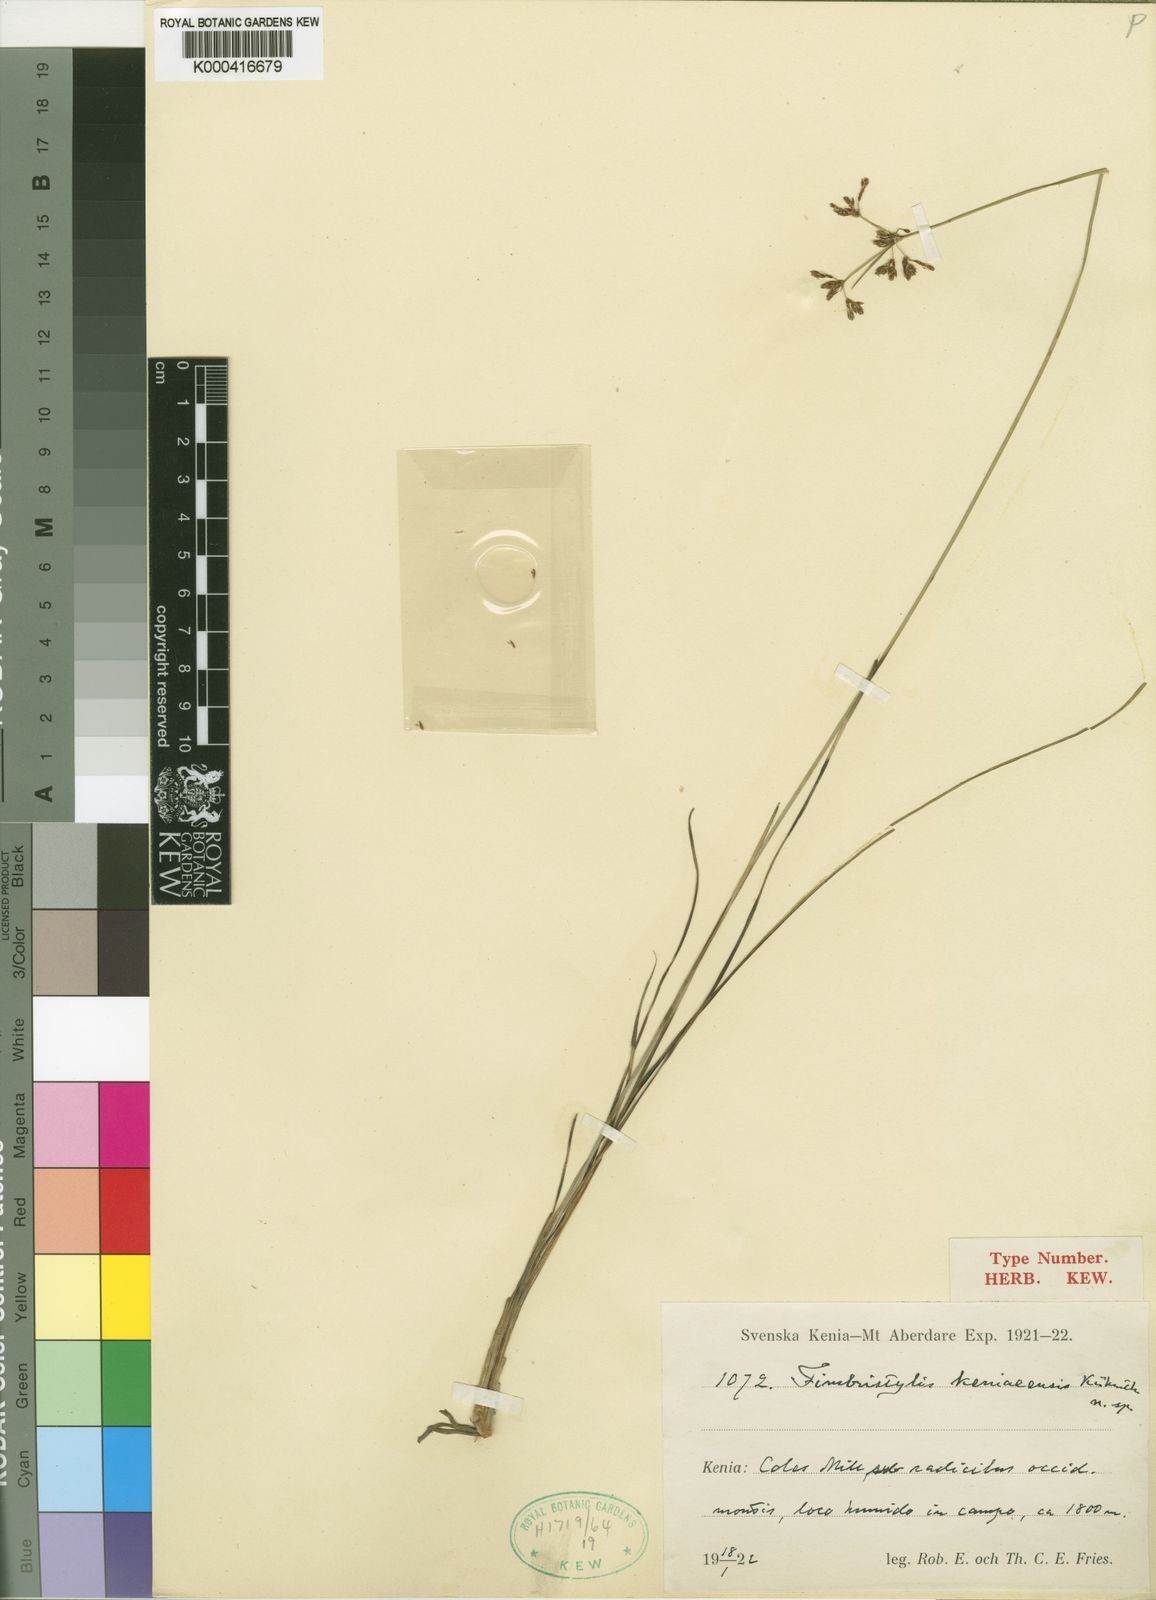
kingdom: Plantae
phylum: Tracheophyta
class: Liliopsida
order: Poales
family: Cyperaceae
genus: Fimbristylis
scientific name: Fimbristylis
